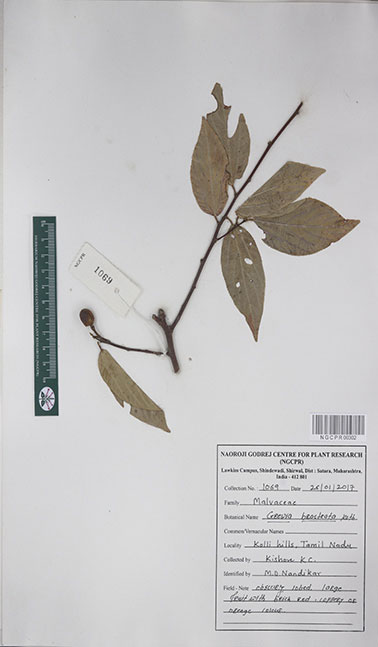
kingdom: Plantae
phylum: Tracheophyta
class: Magnoliopsida
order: Malvales
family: Malvaceae
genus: Grewia
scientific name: Grewia bracteata
